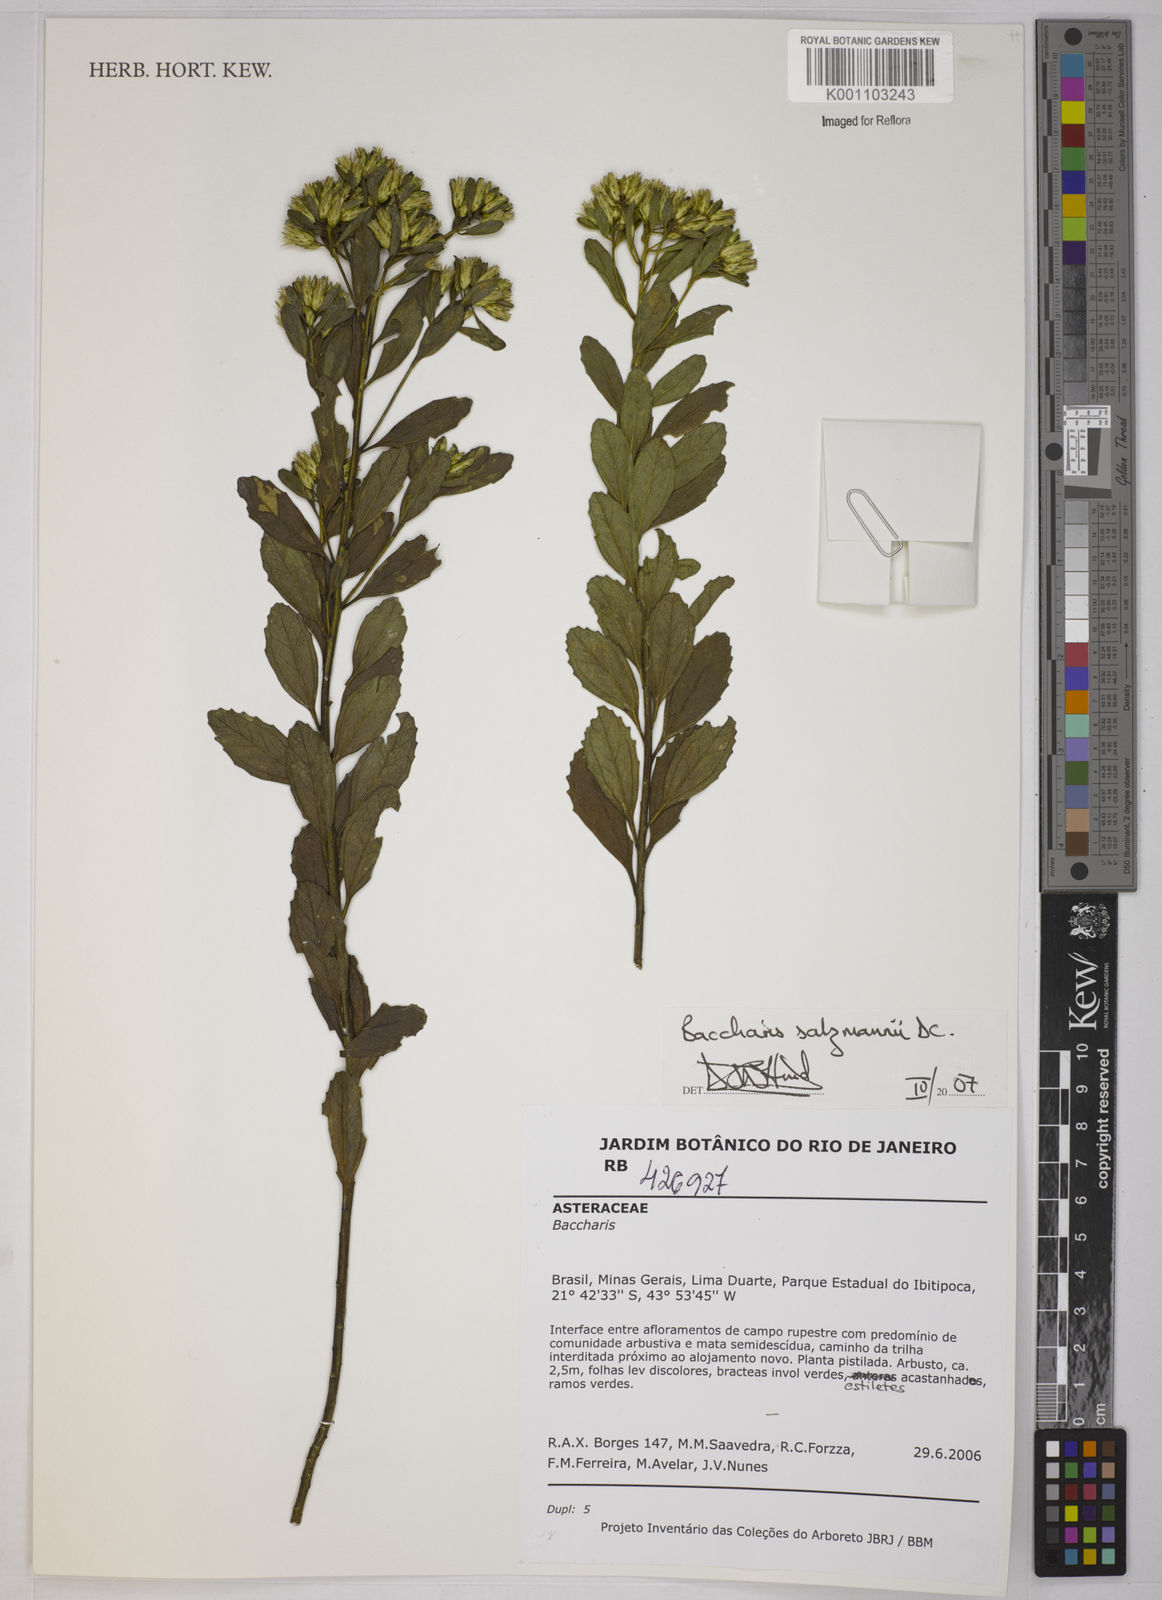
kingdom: Plantae
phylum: Tracheophyta
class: Magnoliopsida
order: Asterales
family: Asteraceae
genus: Baccharis
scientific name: Baccharis retusa
